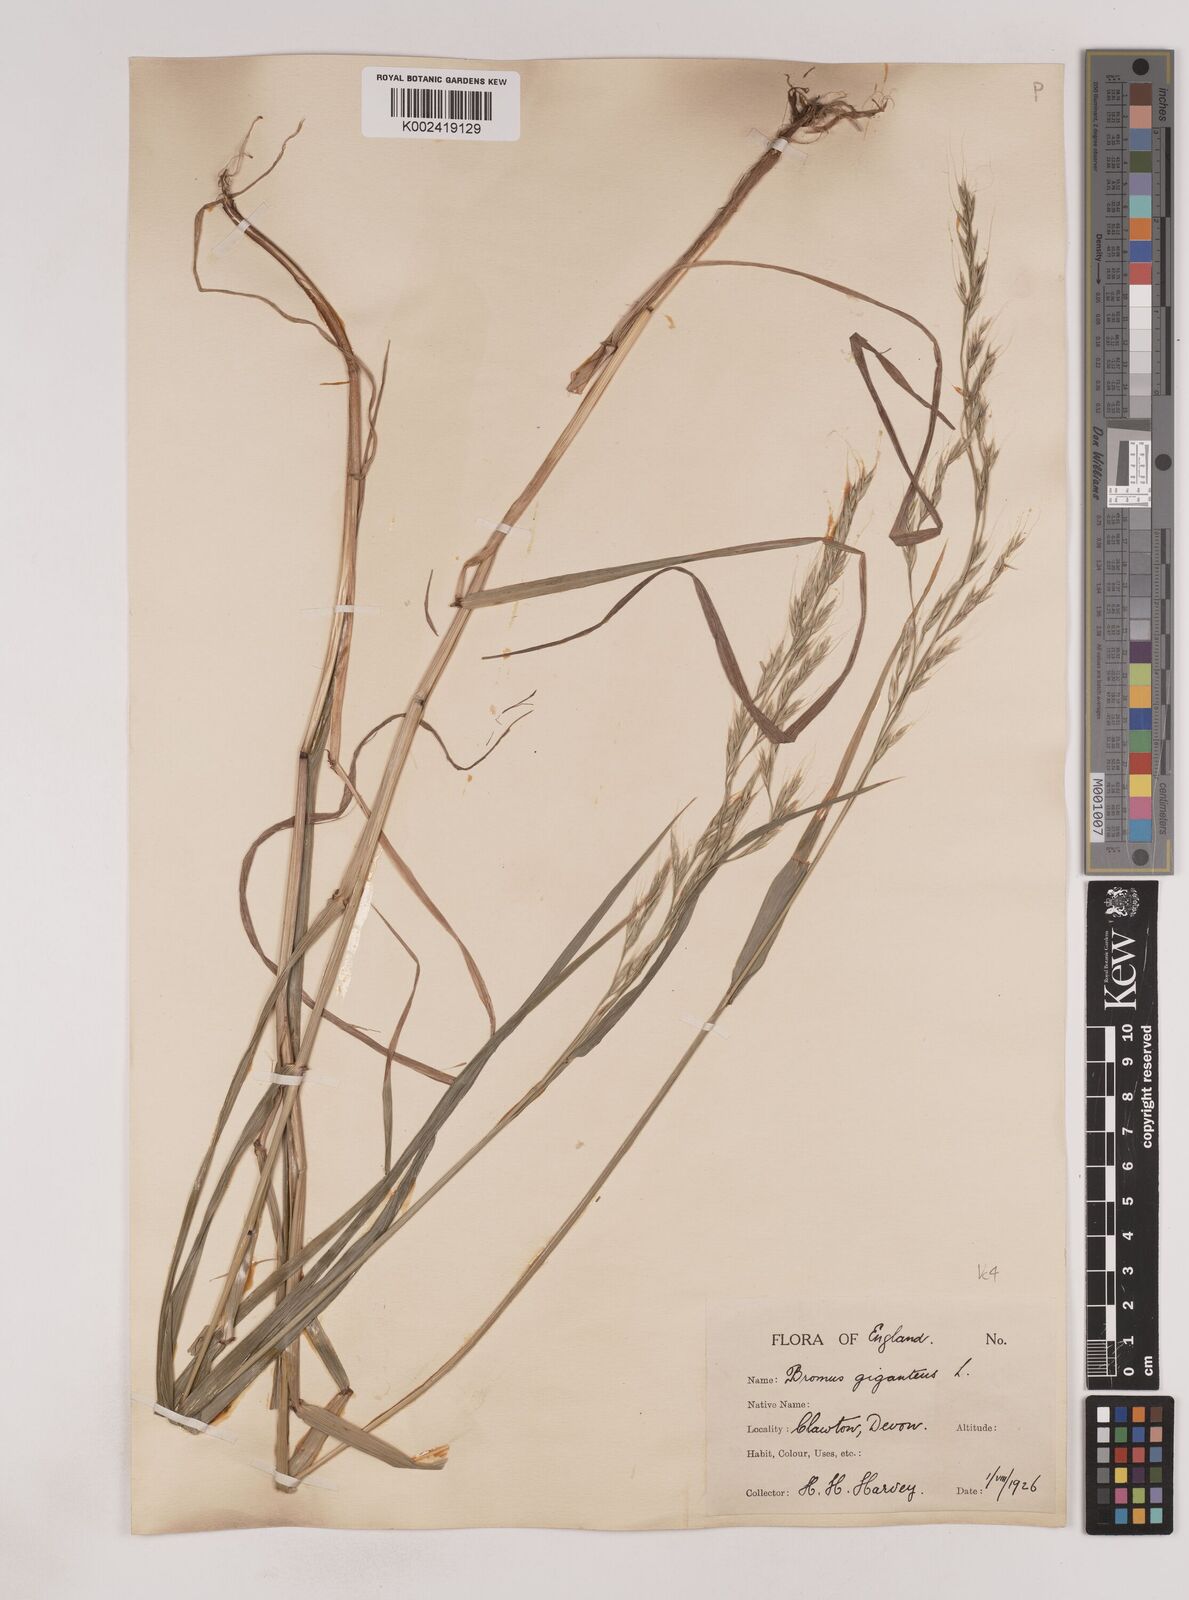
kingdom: Plantae
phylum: Tracheophyta
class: Liliopsida
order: Poales
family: Poaceae
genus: Lolium
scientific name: Lolium giganteum
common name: Giant fescue
